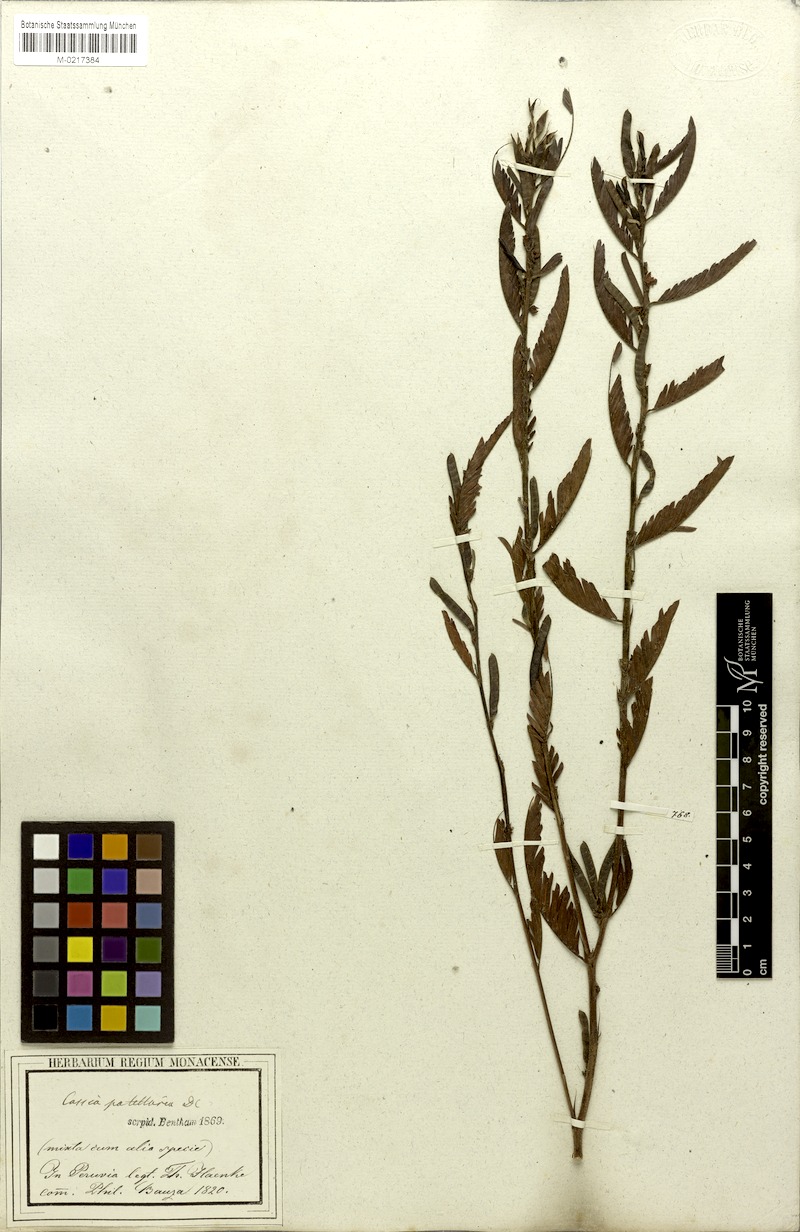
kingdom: Plantae
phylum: Tracheophyta
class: Magnoliopsida
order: Fabales
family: Fabaceae
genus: Chamaecrista
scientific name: Chamaecrista nictitans
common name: Sensitive cassia
